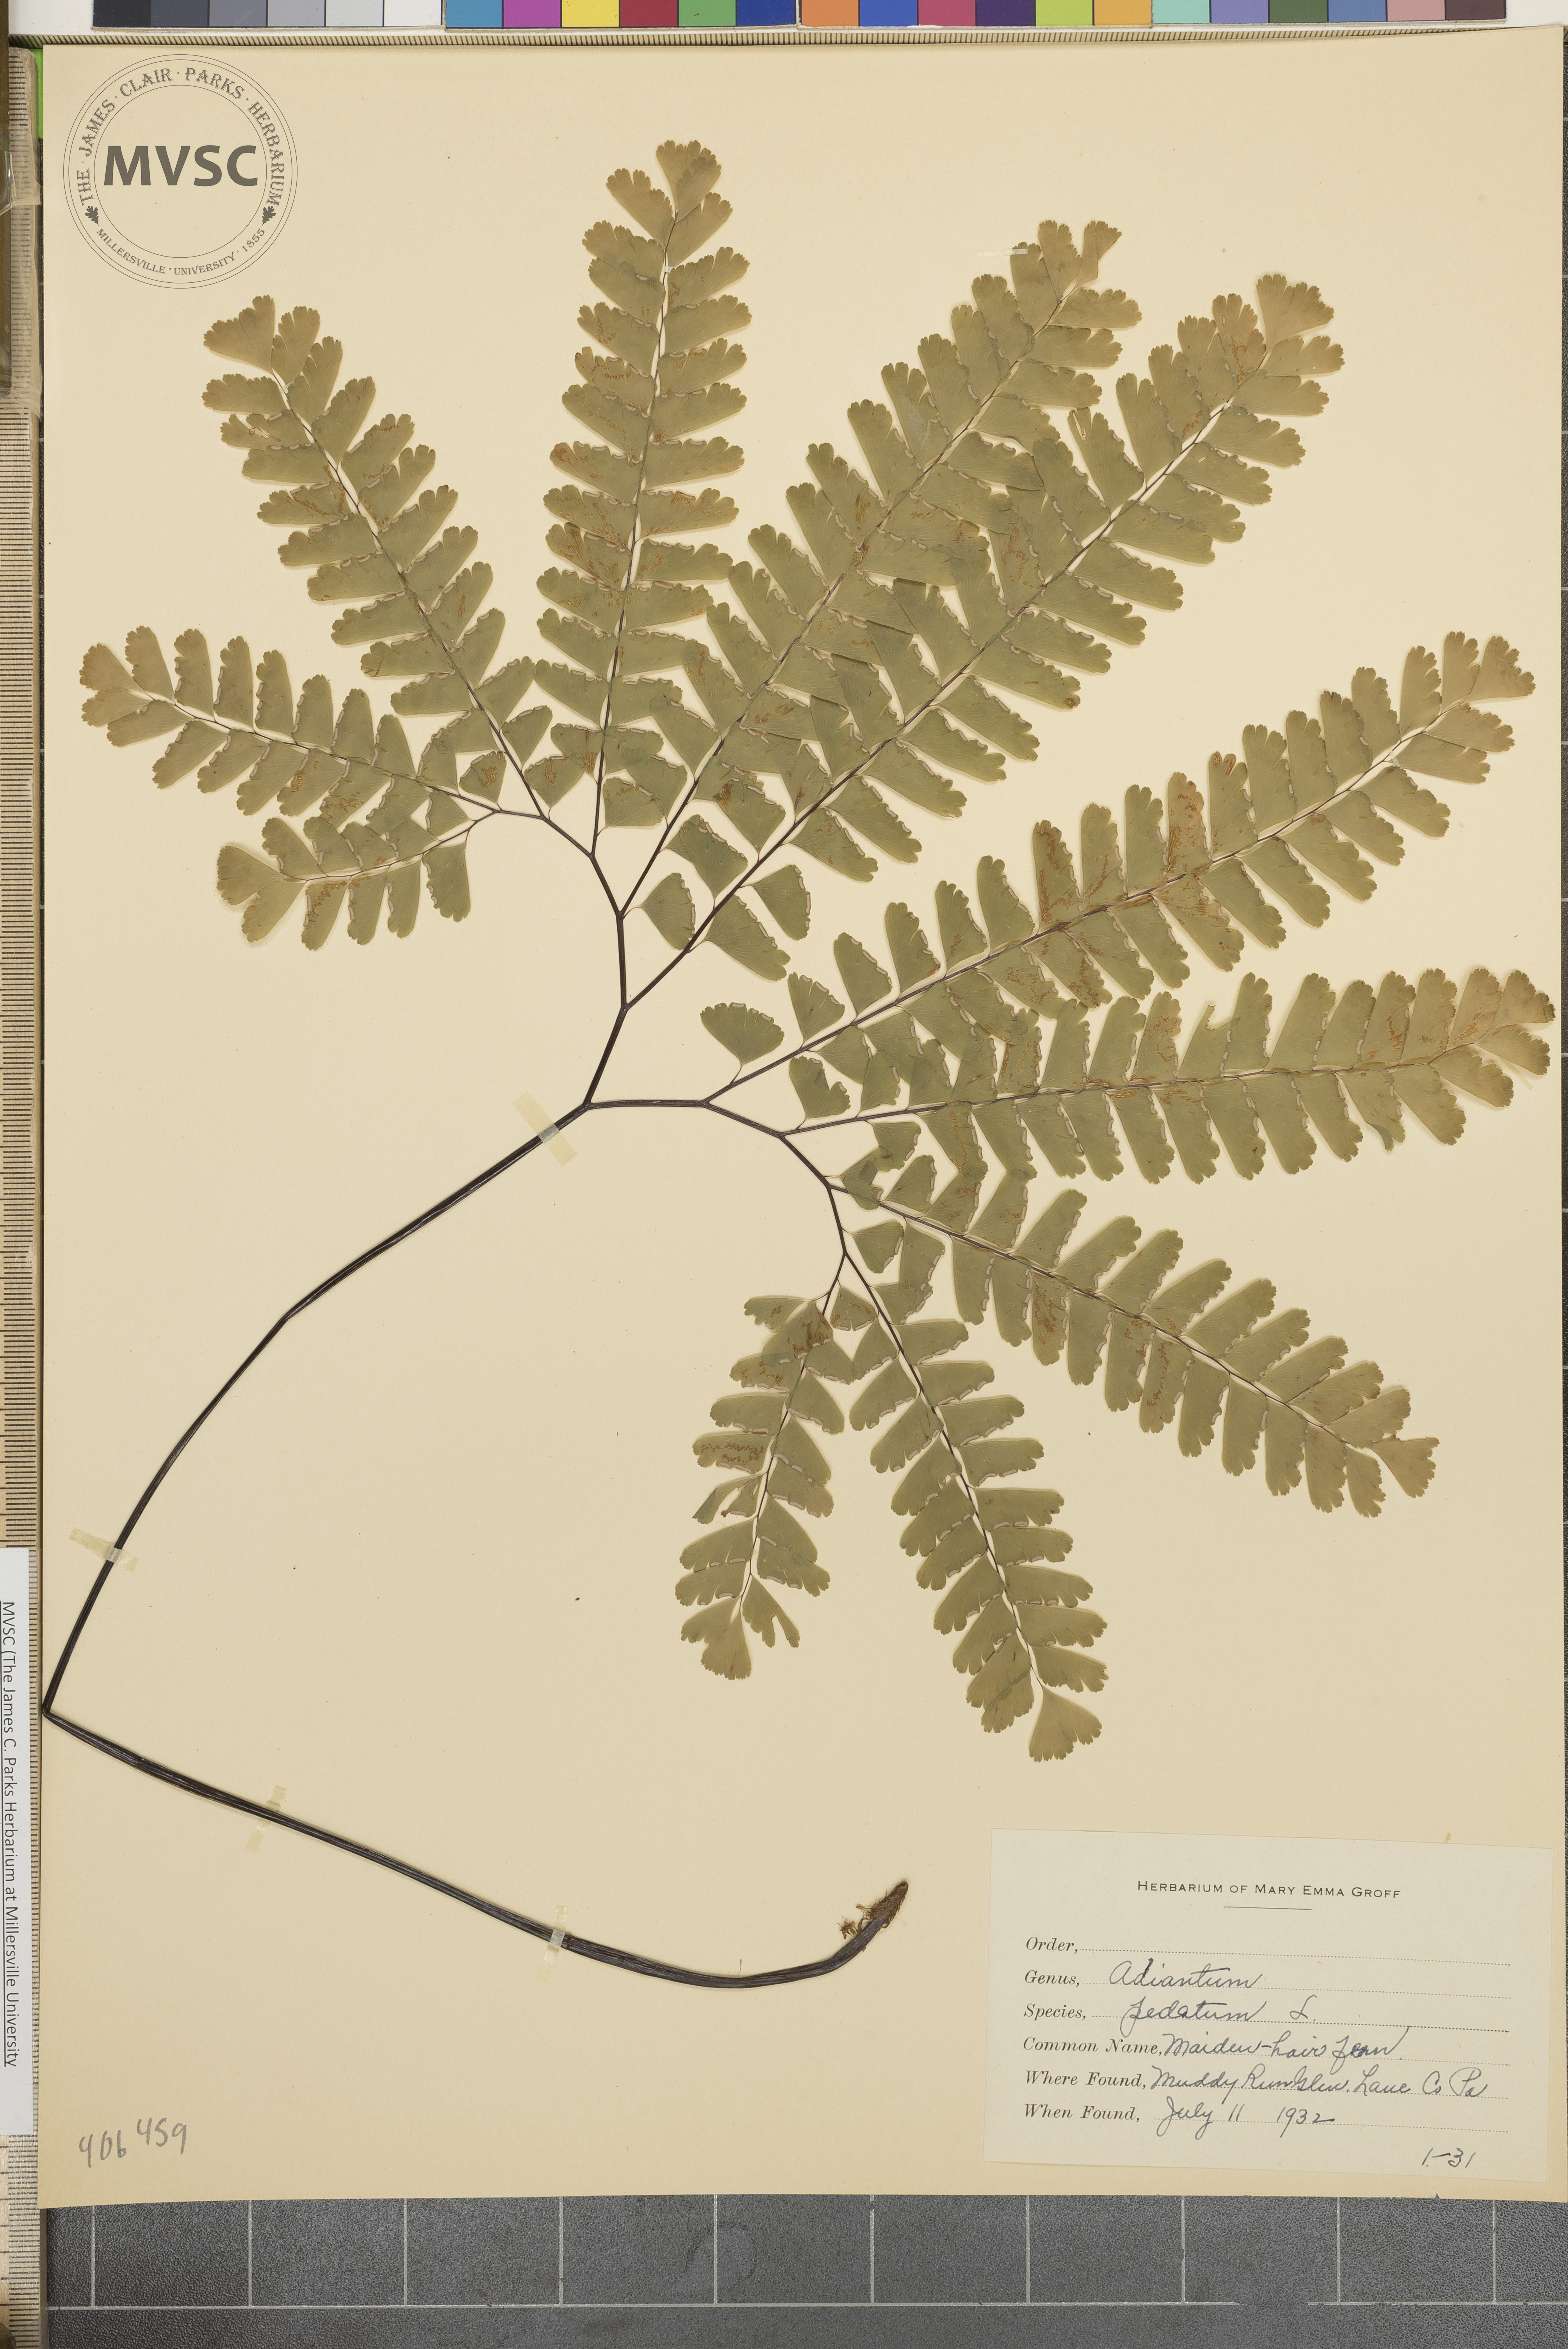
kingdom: Plantae
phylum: Tracheophyta
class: Polypodiopsida
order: Polypodiales
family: Pteridaceae
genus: Adiantum
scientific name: Adiantum pedatum
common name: Five-finger fern
